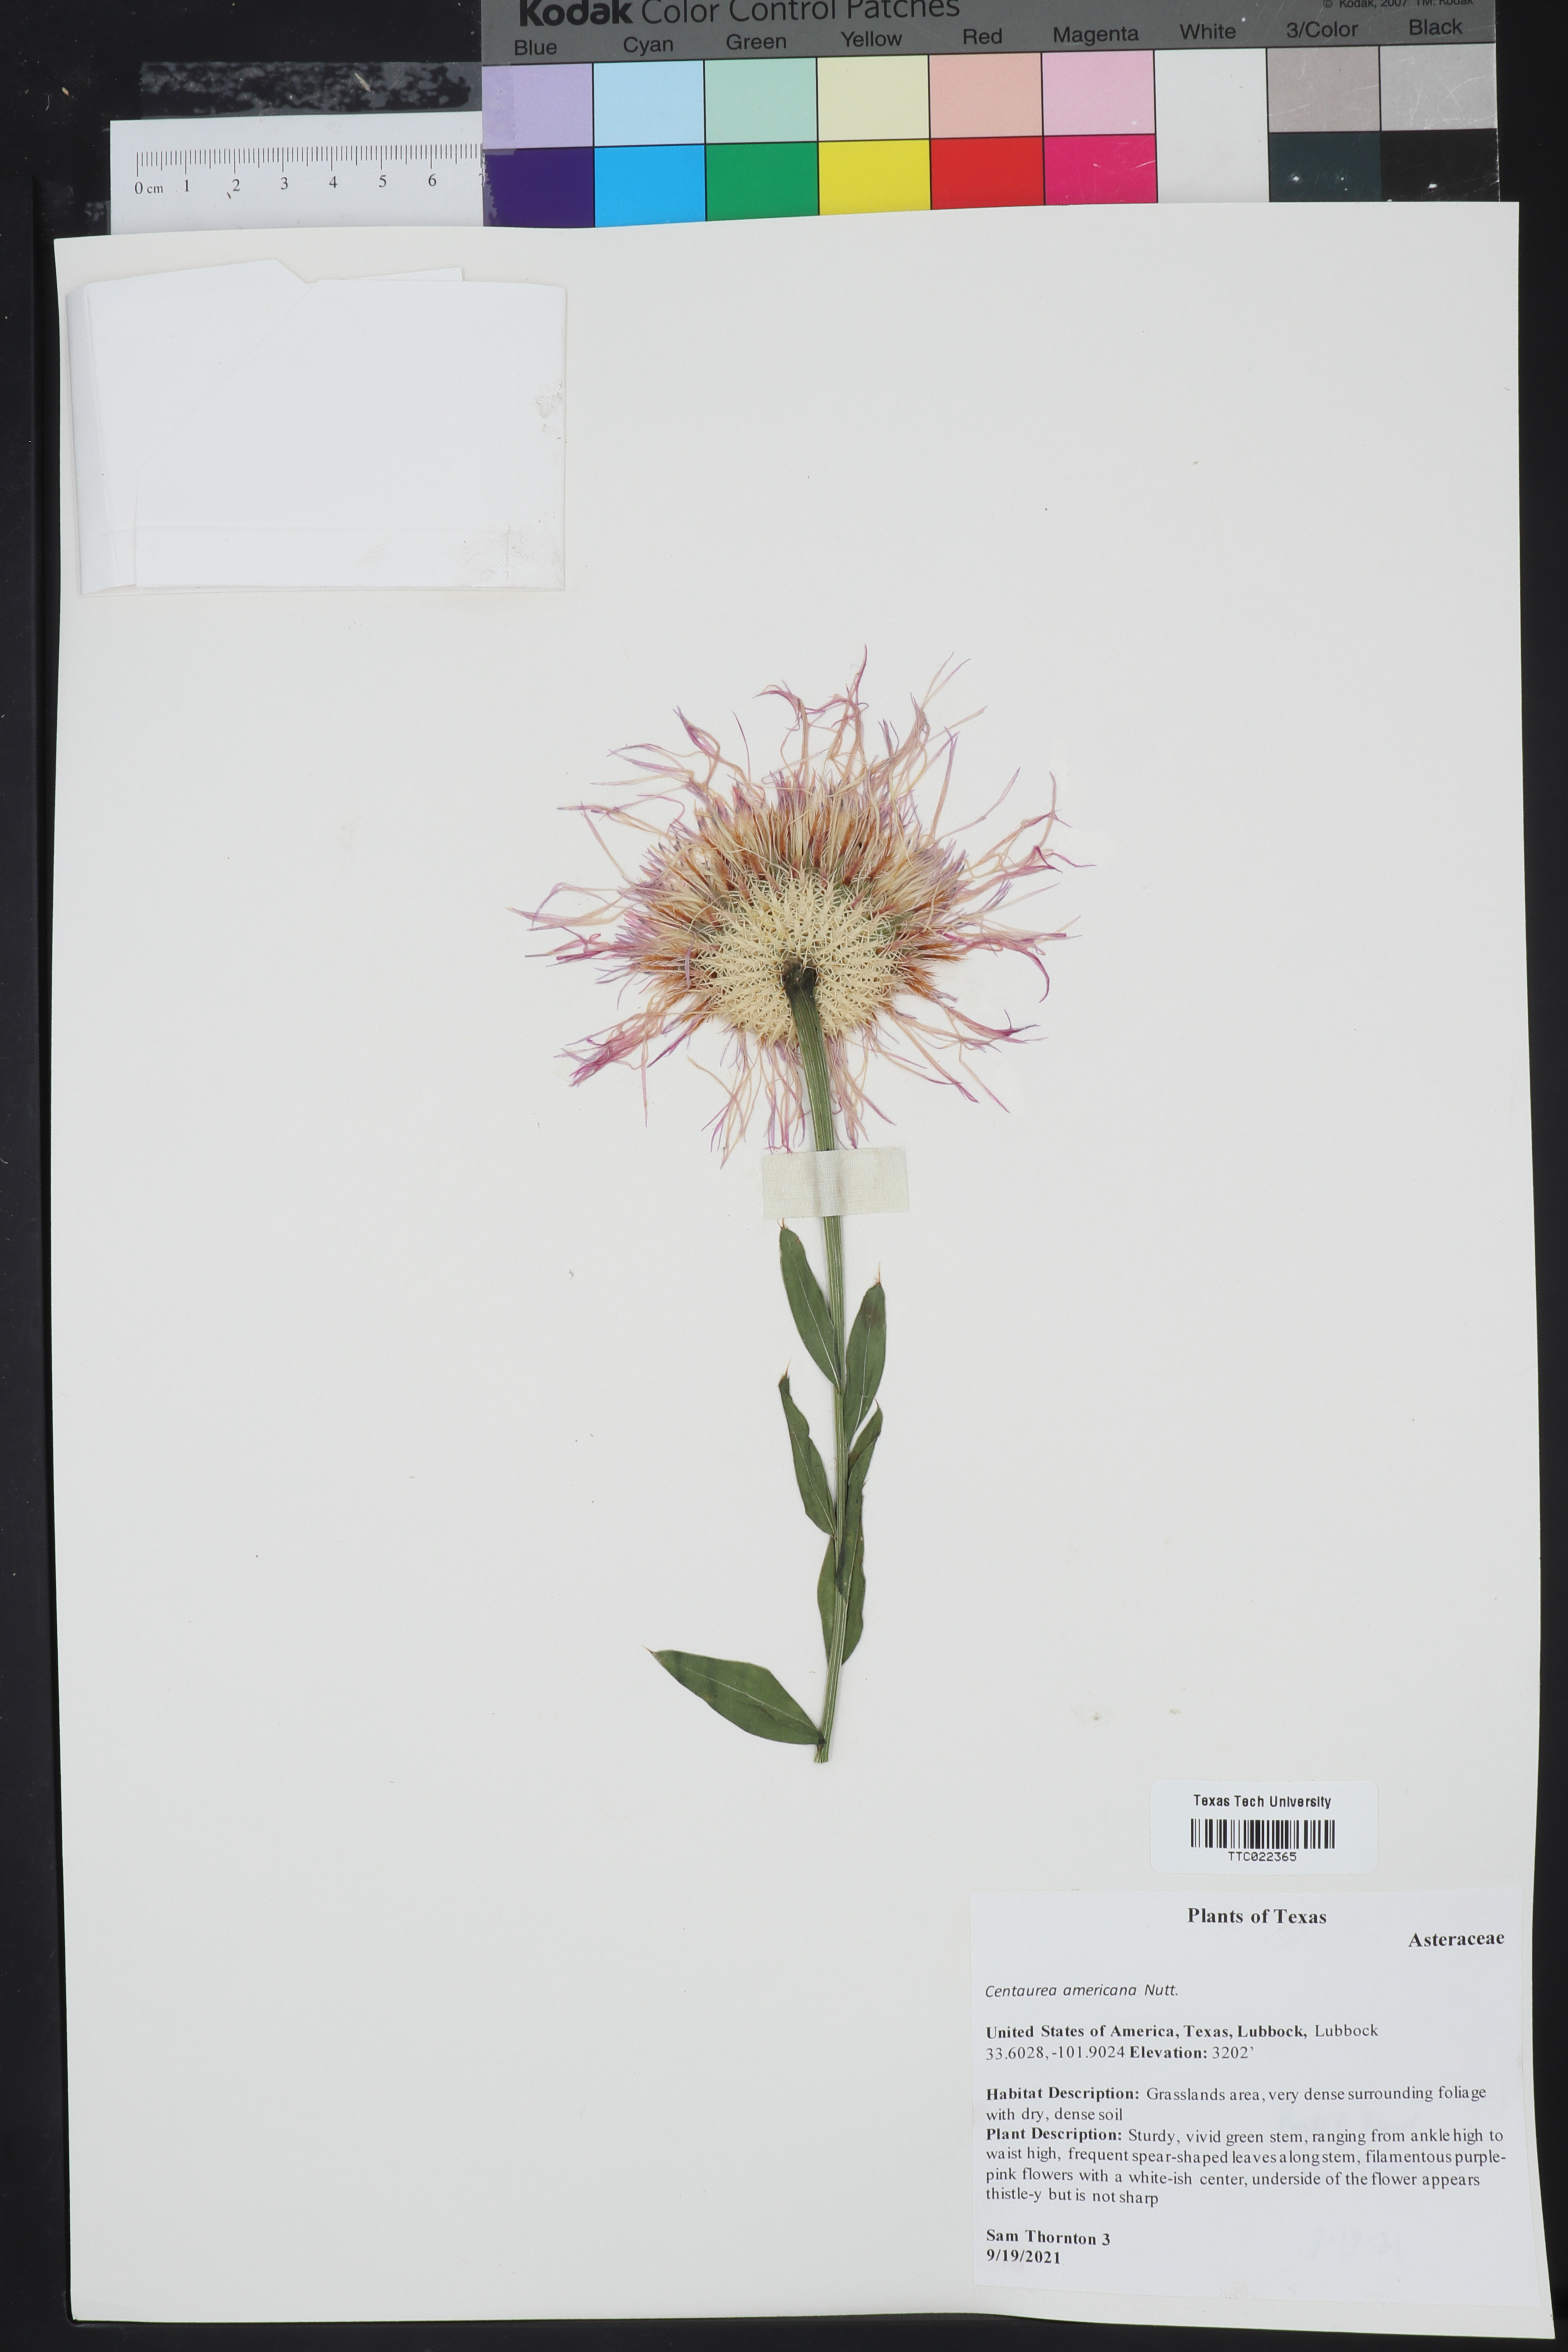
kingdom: Plantae
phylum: Tracheophyta
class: Magnoliopsida
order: Asterales
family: Asteraceae
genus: Plectocephalus
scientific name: Plectocephalus americanus
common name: American basket-flower
